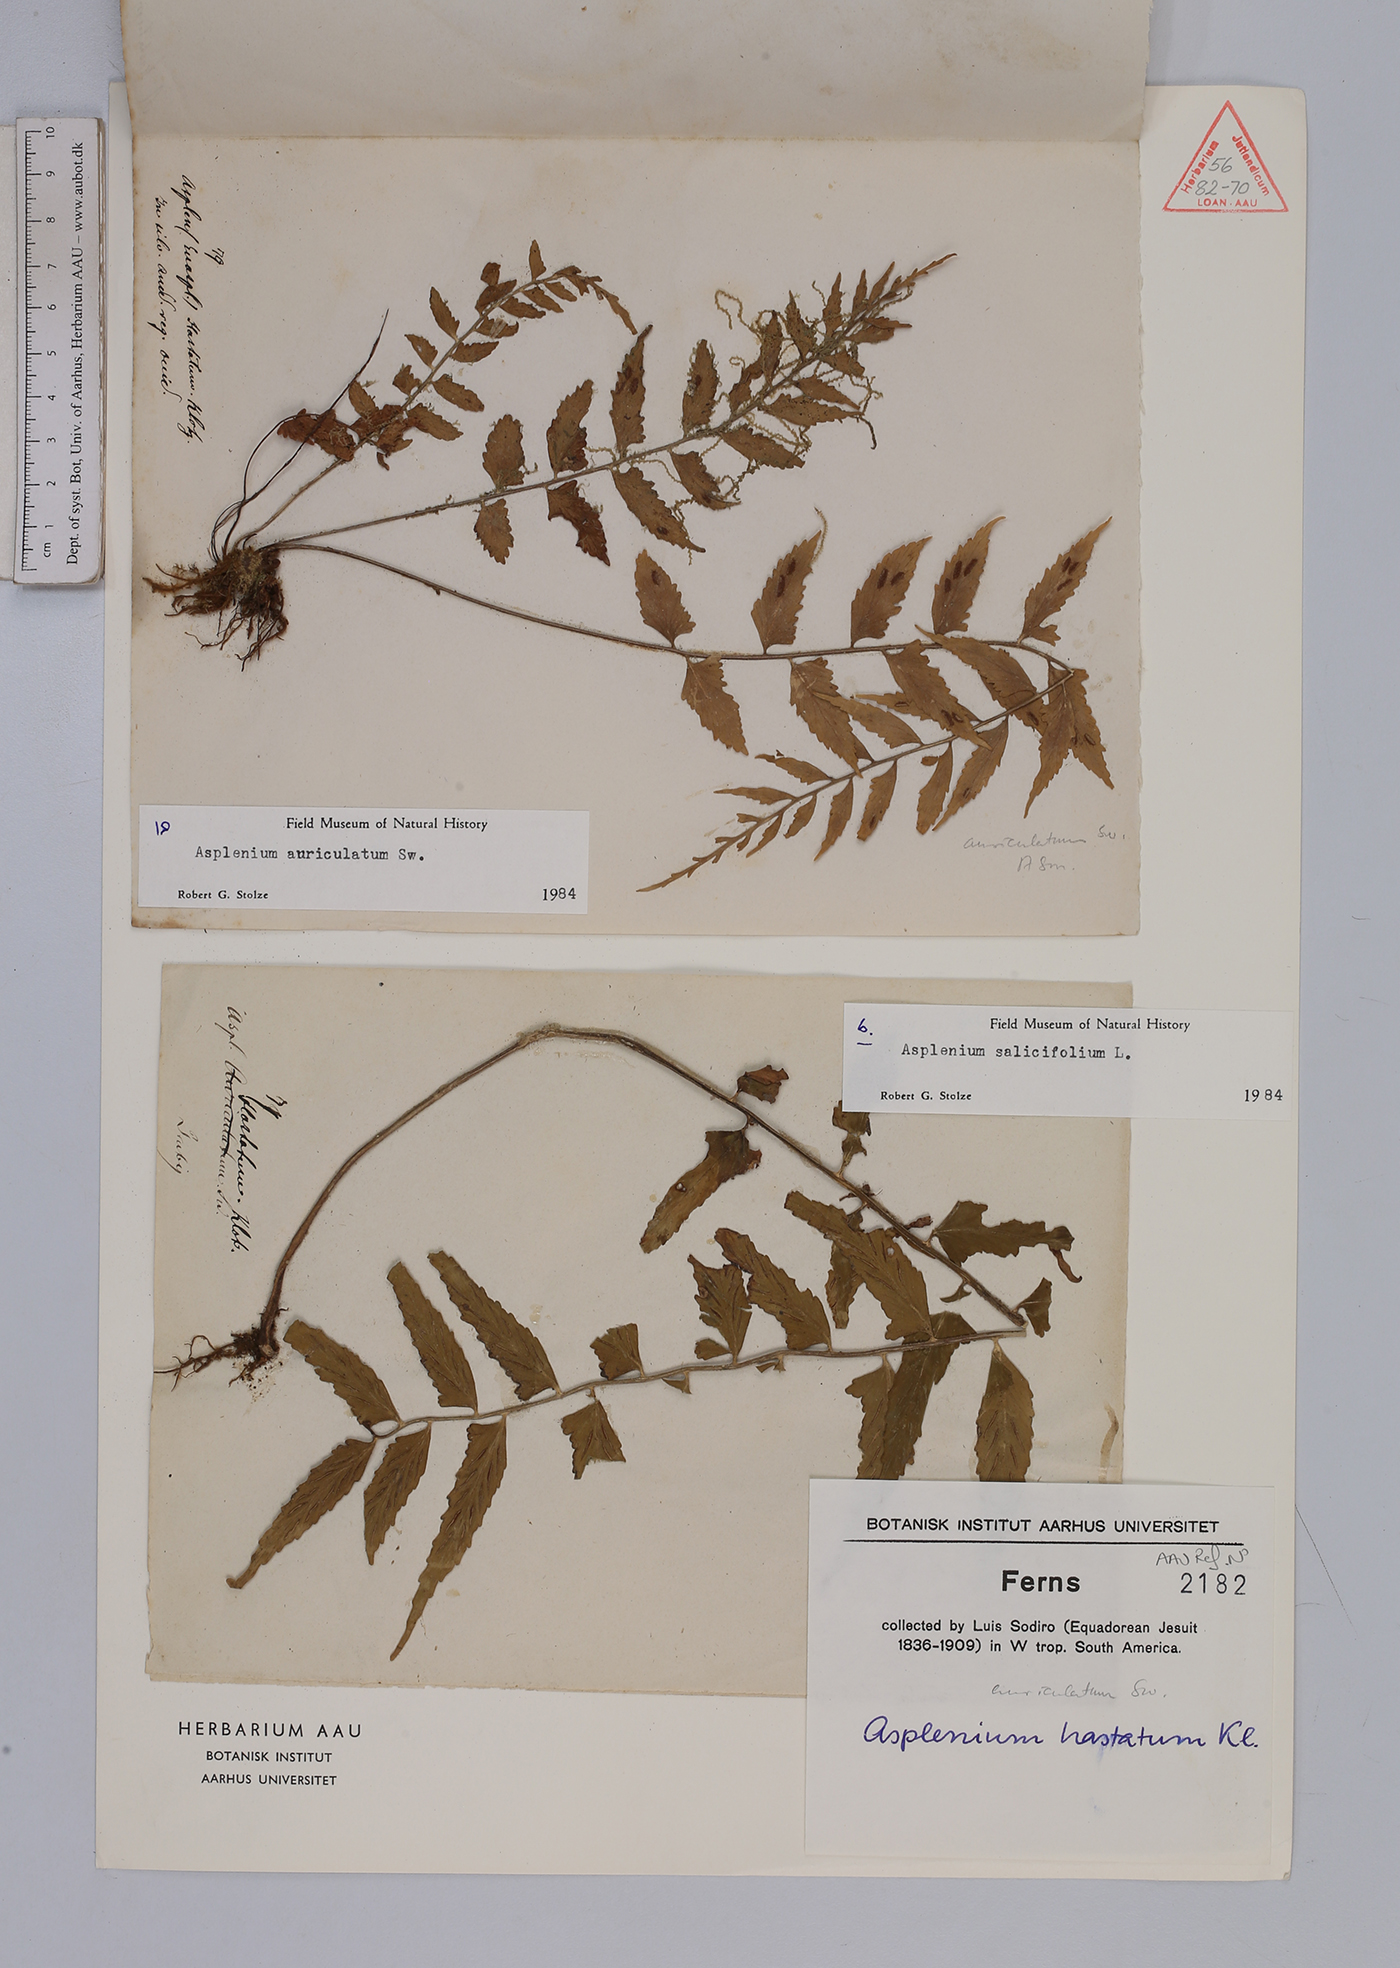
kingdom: Plantae
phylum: Tracheophyta
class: Polypodiopsida
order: Polypodiales
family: Aspleniaceae
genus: Asplenium
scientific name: Asplenium salicifolium
